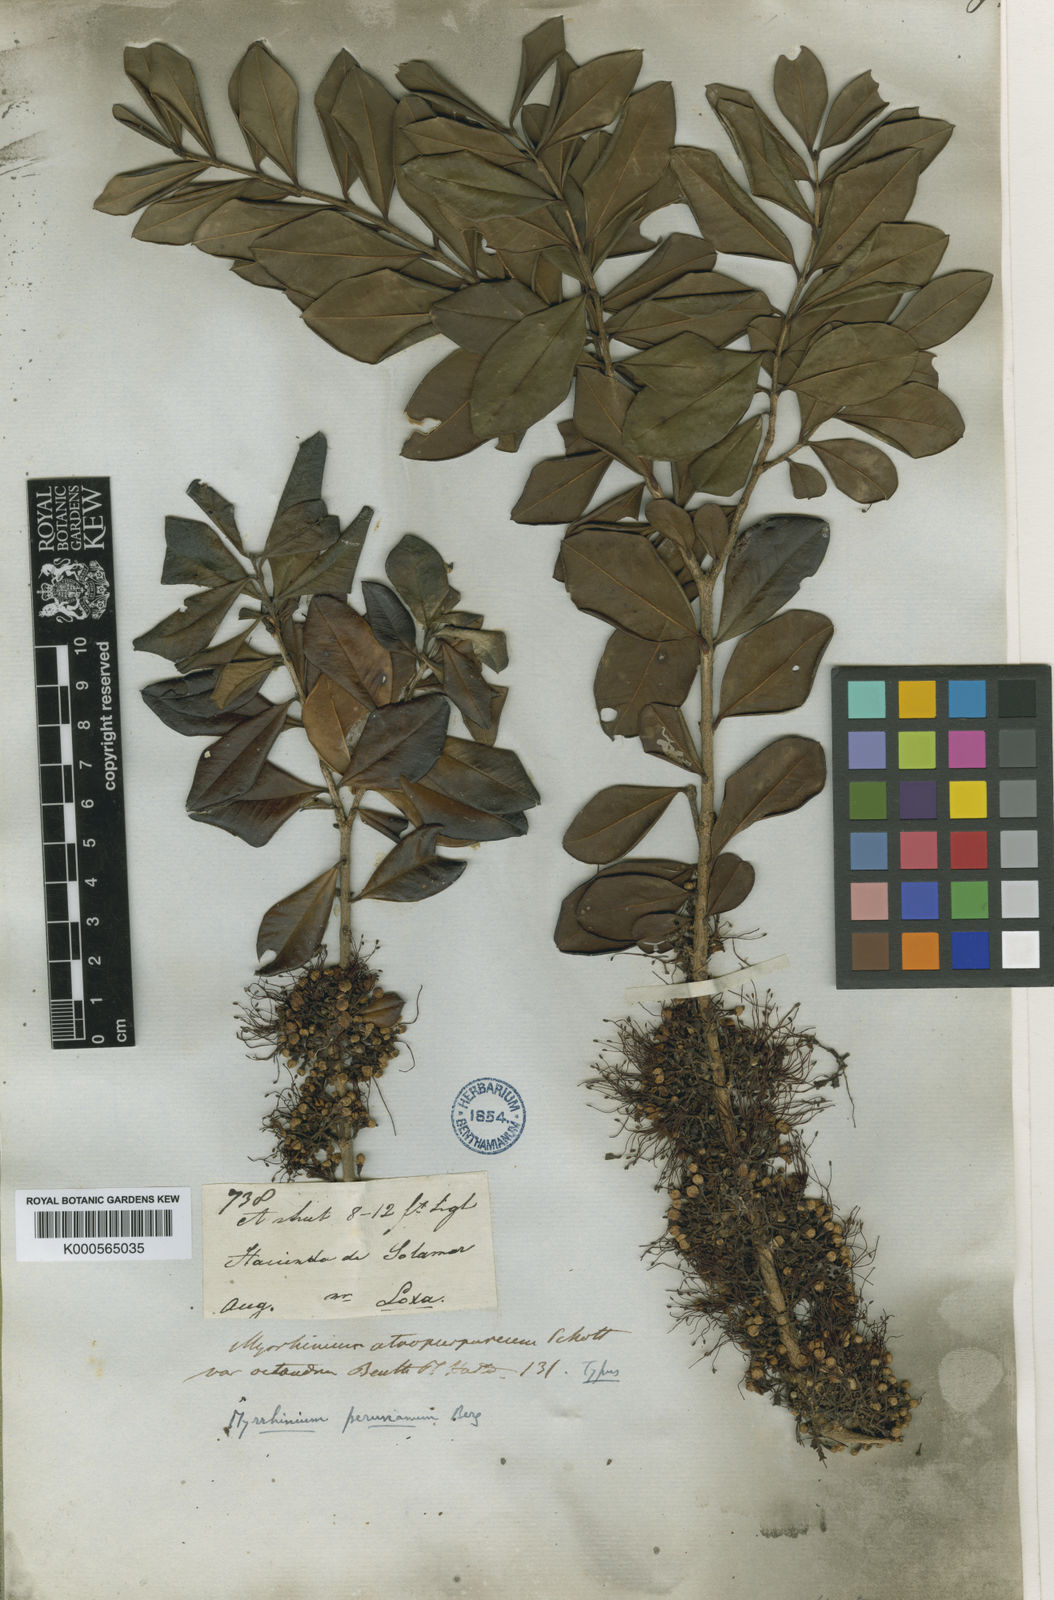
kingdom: Plantae
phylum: Tracheophyta
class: Magnoliopsida
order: Myrtales
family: Myrtaceae
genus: Myrrhinium
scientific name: Myrrhinium atropurpureum
